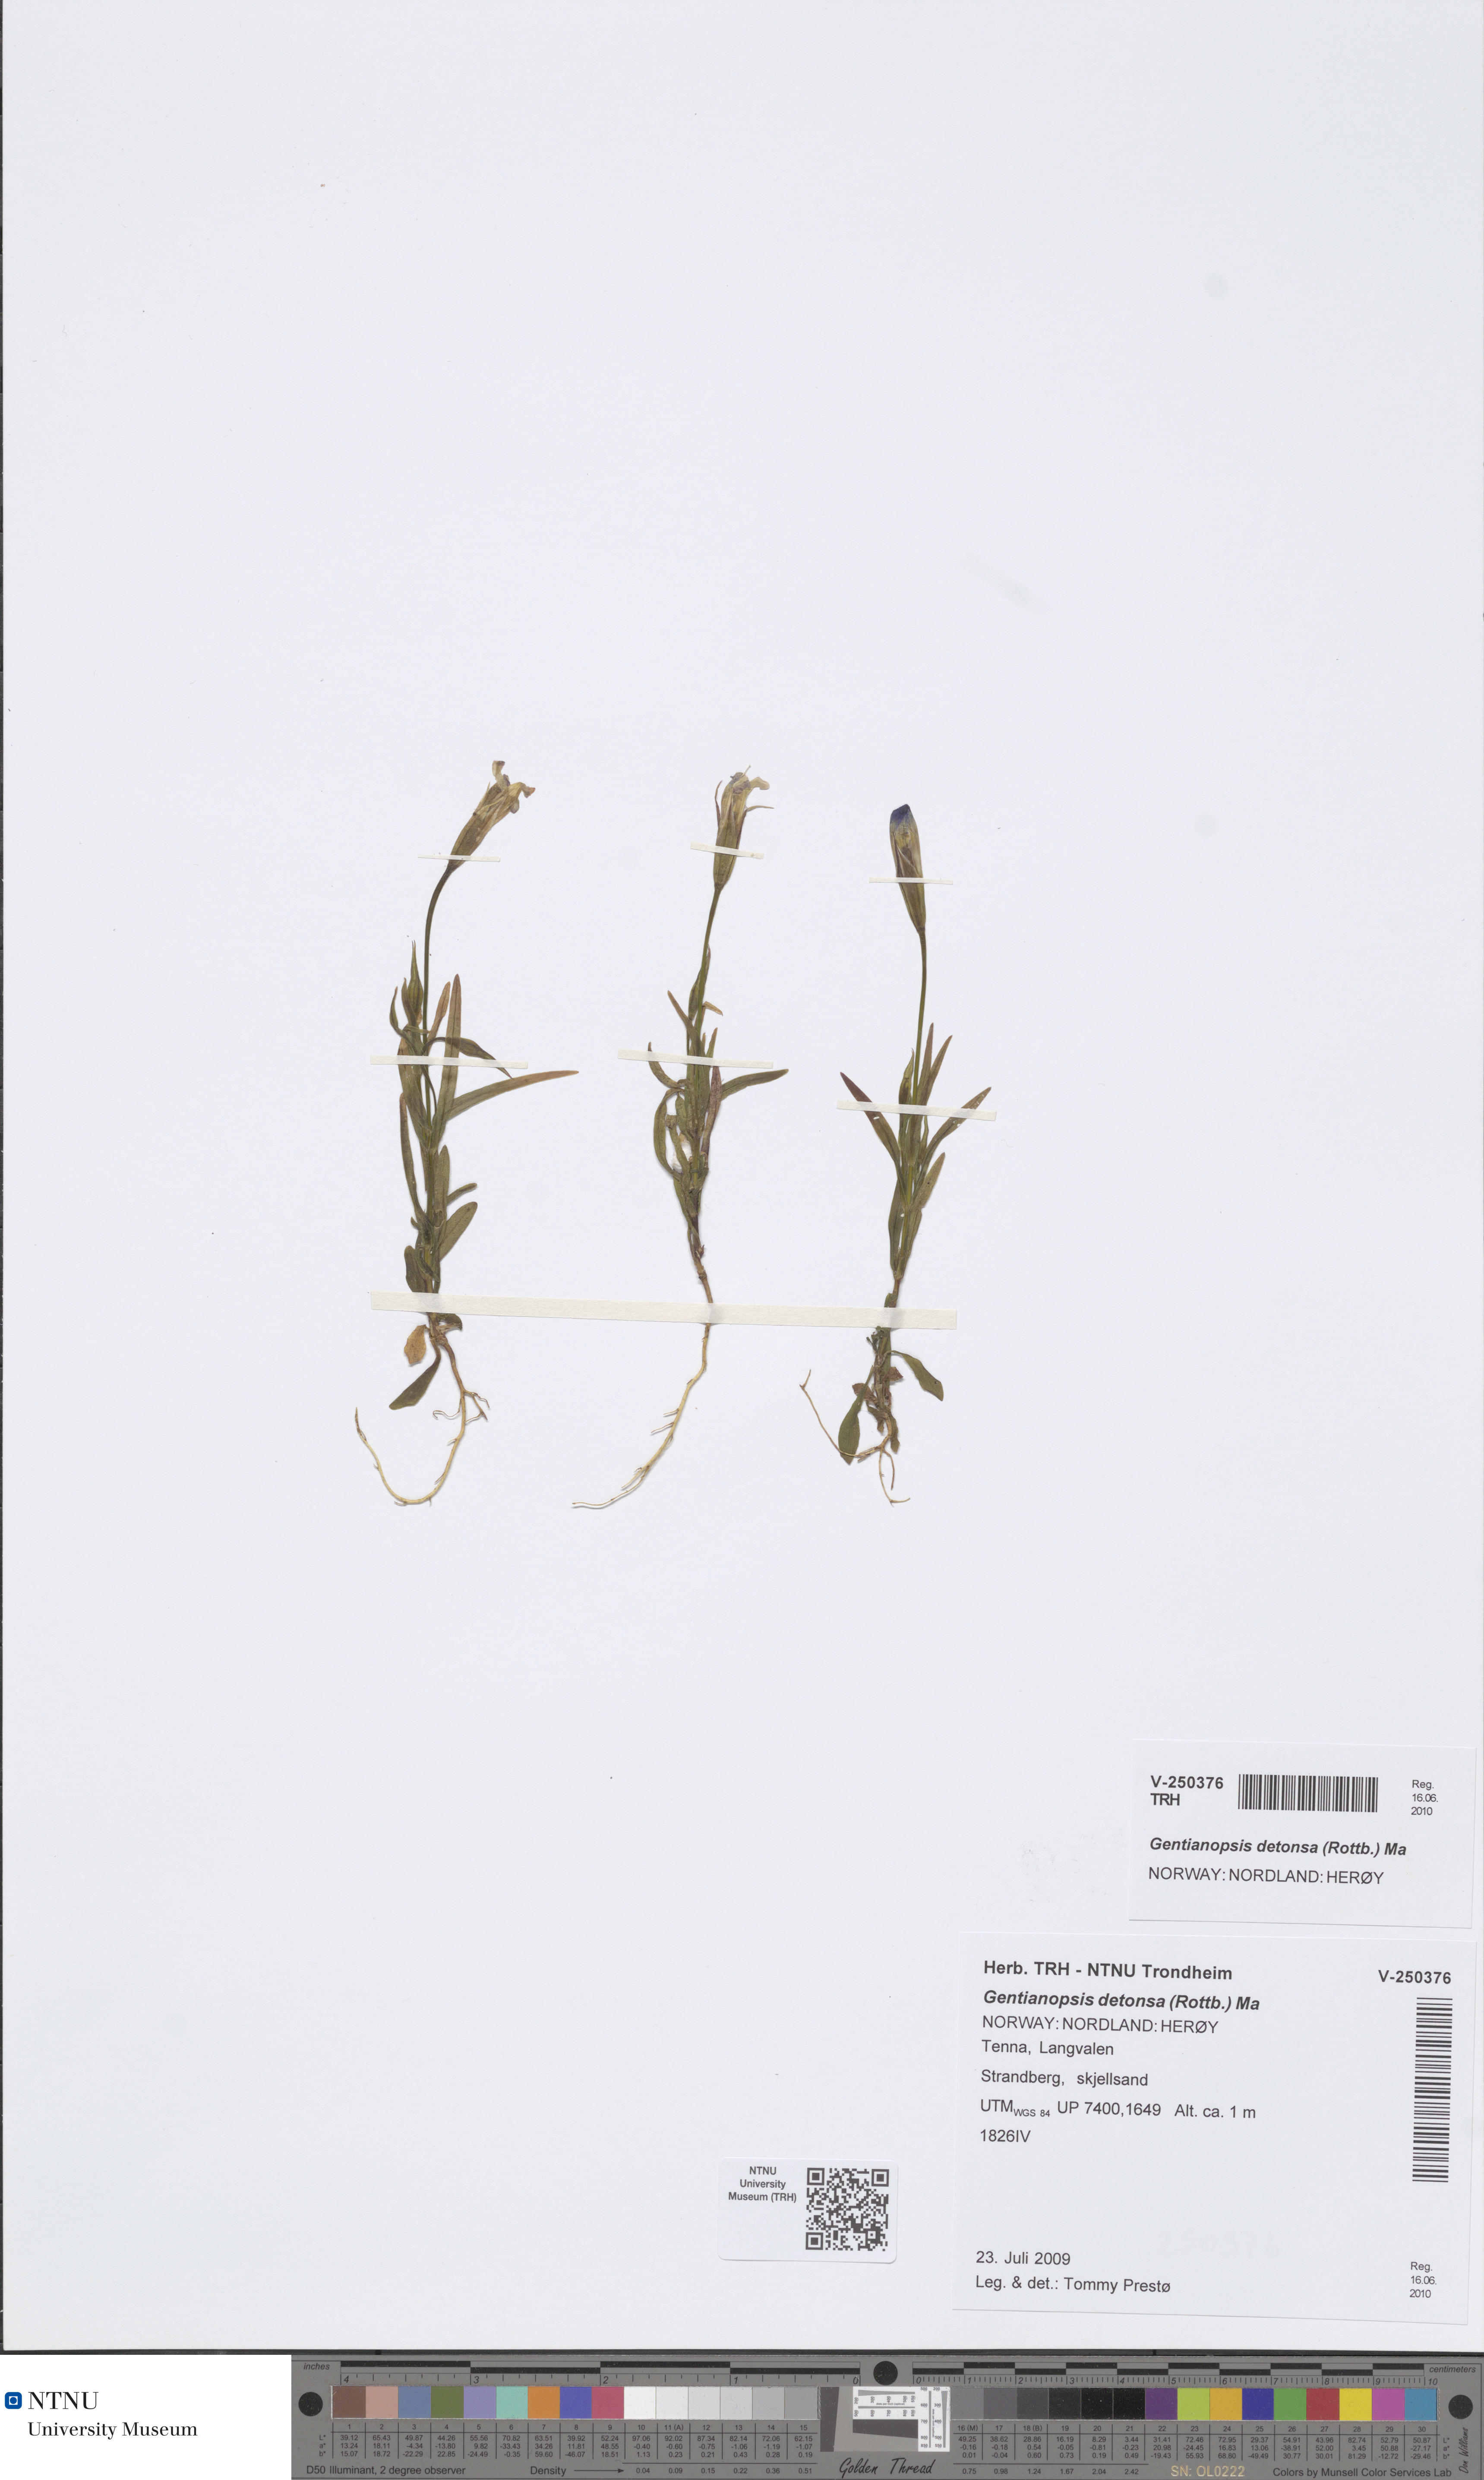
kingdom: Plantae
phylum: Tracheophyta
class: Magnoliopsida
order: Gentianales
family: Gentianaceae
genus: Gentianopsis
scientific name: Gentianopsis detonsa
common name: Fringed-gentian
